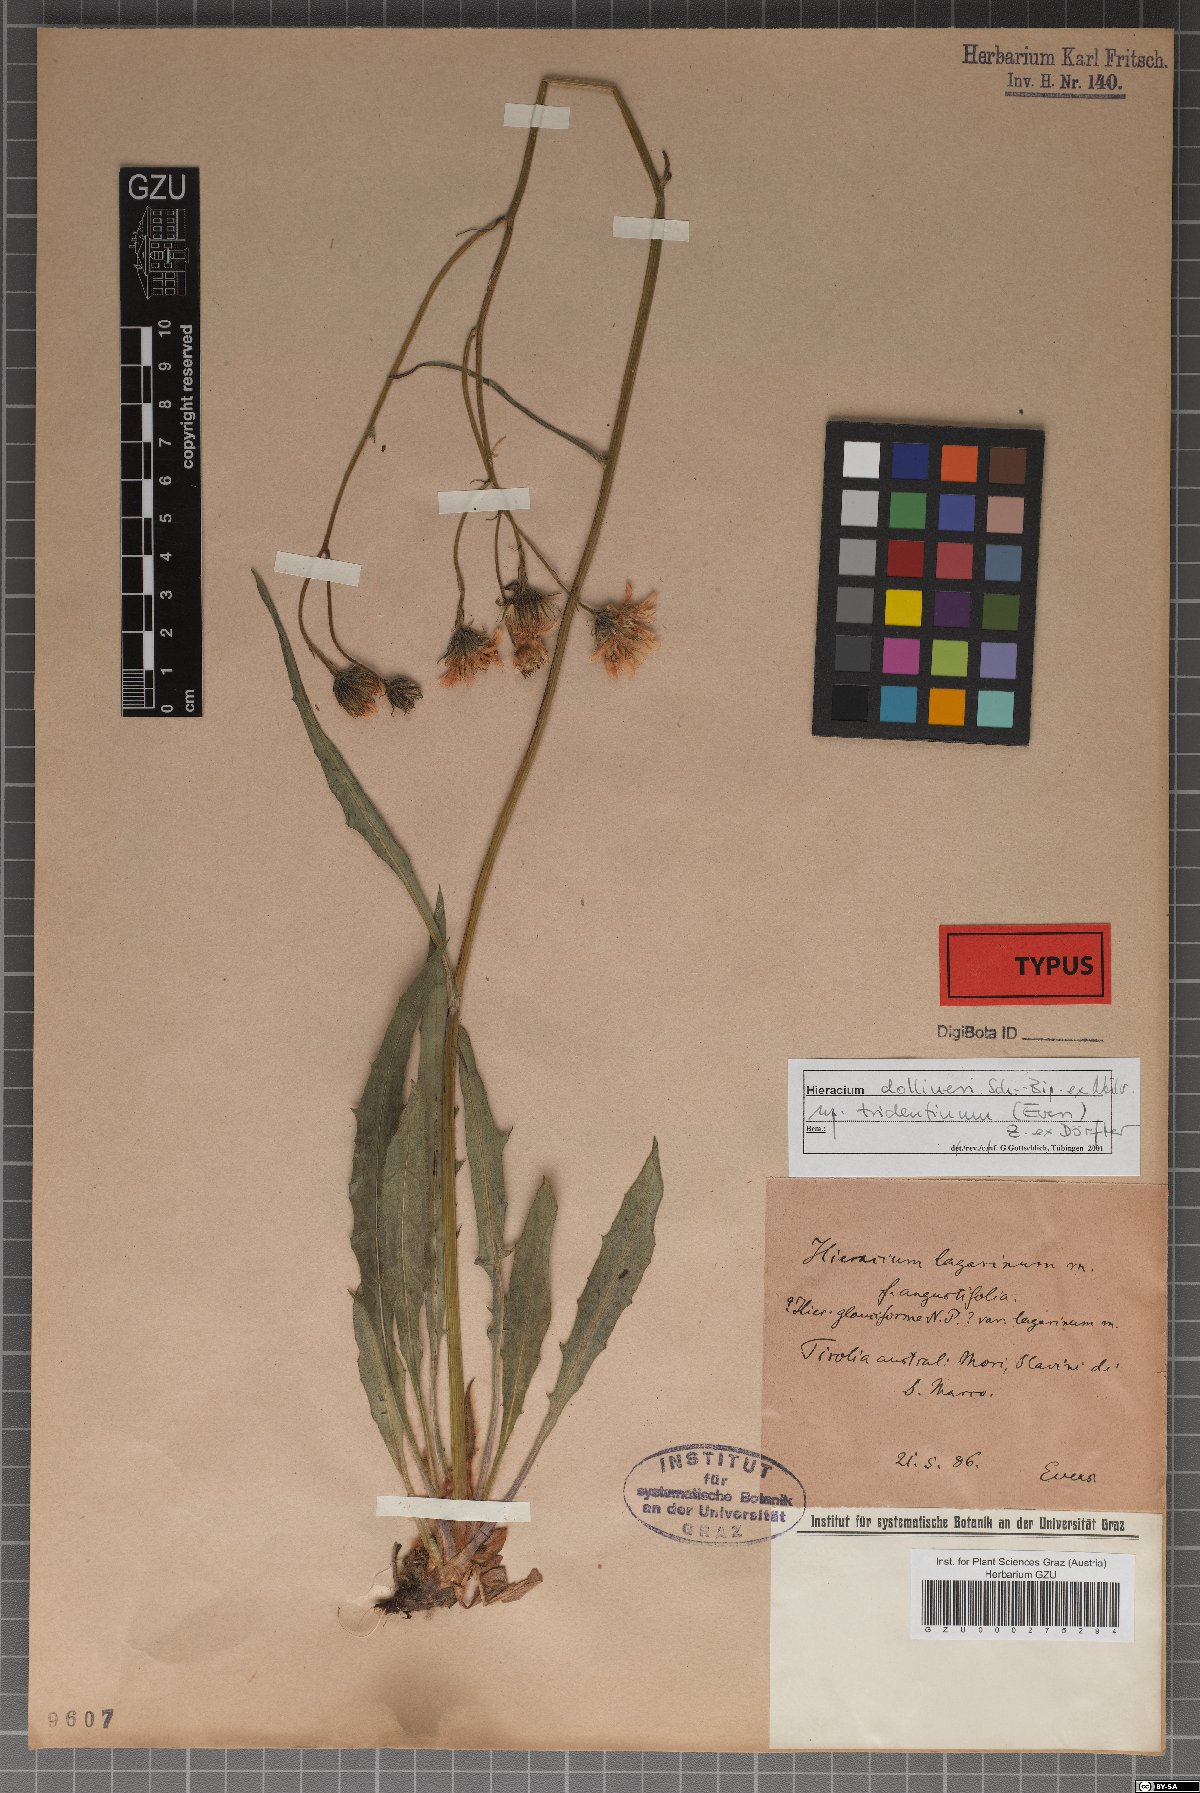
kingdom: Plantae
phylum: Tracheophyta
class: Magnoliopsida
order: Asterales
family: Asteraceae
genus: Hieracium
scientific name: Hieracium dollineri
